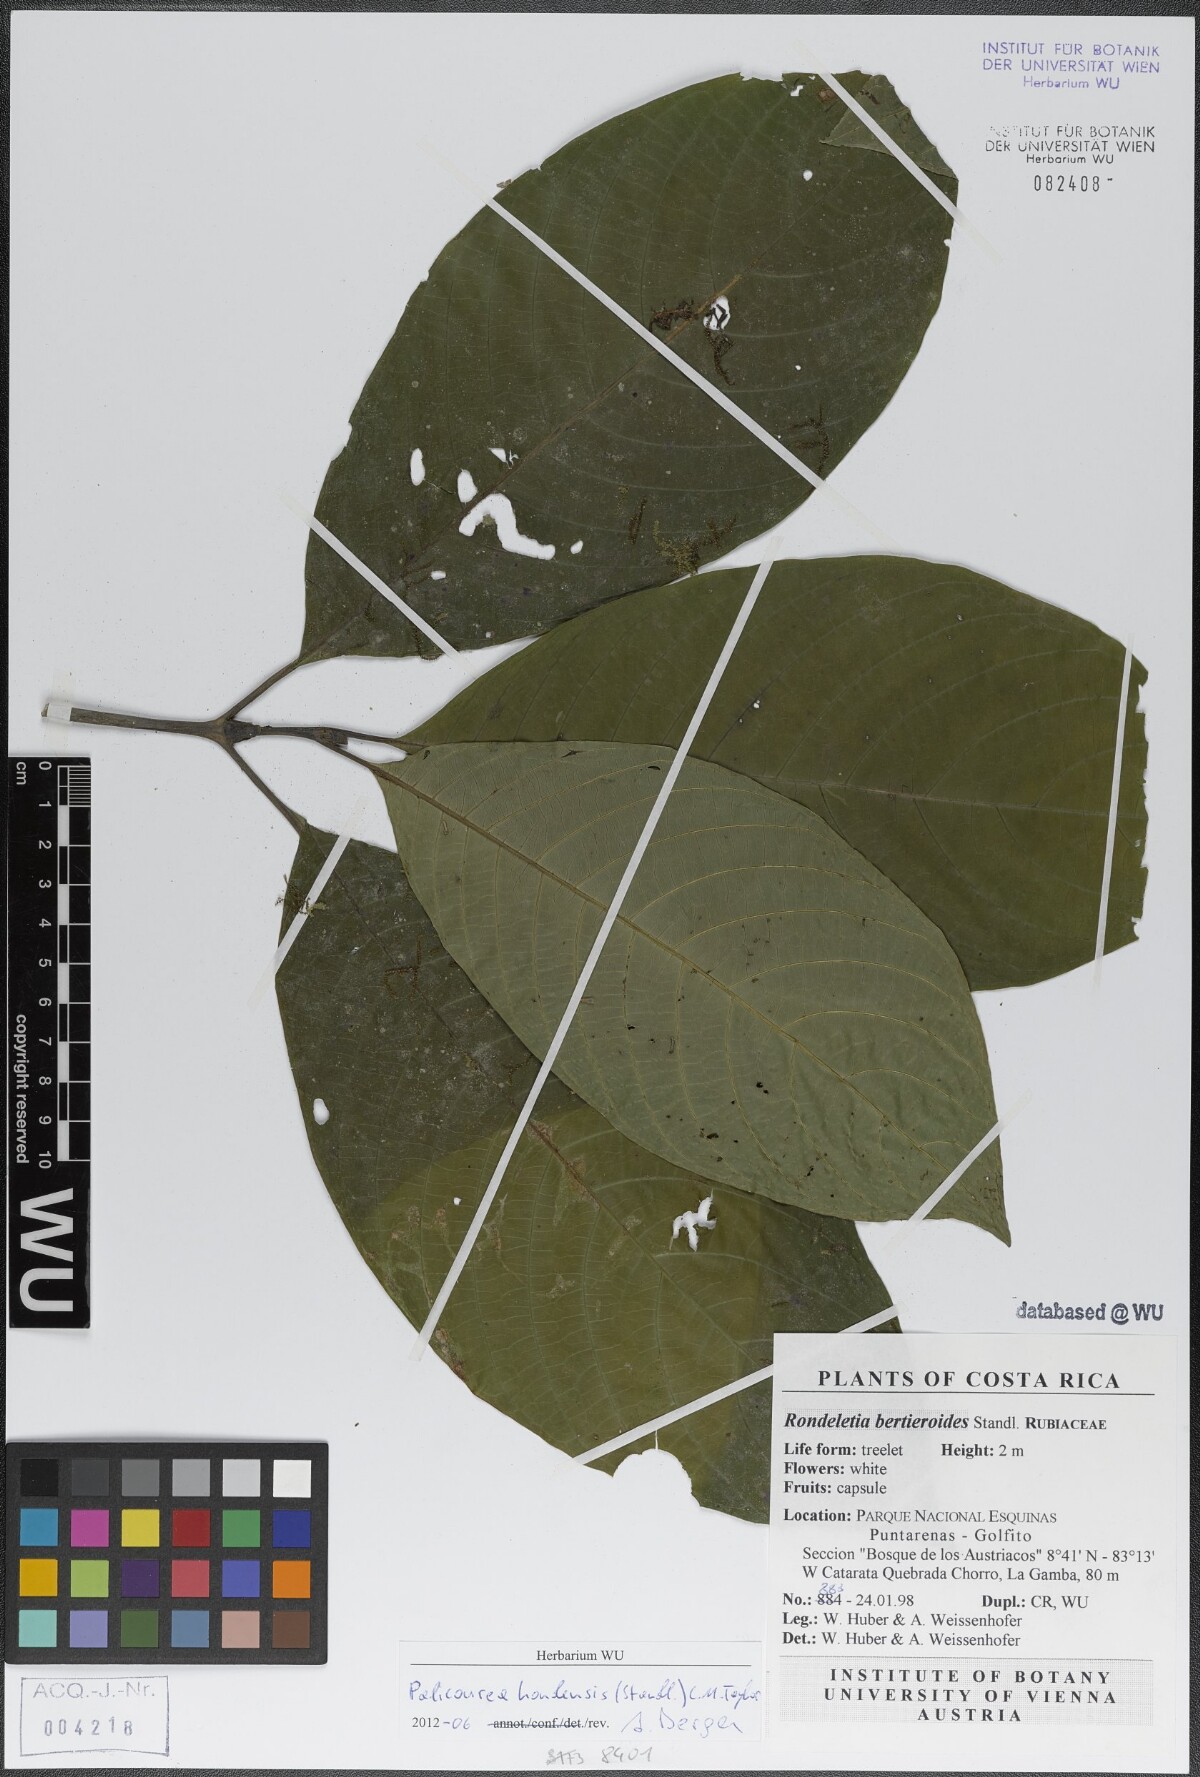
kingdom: Plantae
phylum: Tracheophyta
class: Magnoliopsida
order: Gentianales
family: Rubiaceae
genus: Palicourea
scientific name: Palicourea hondensis
